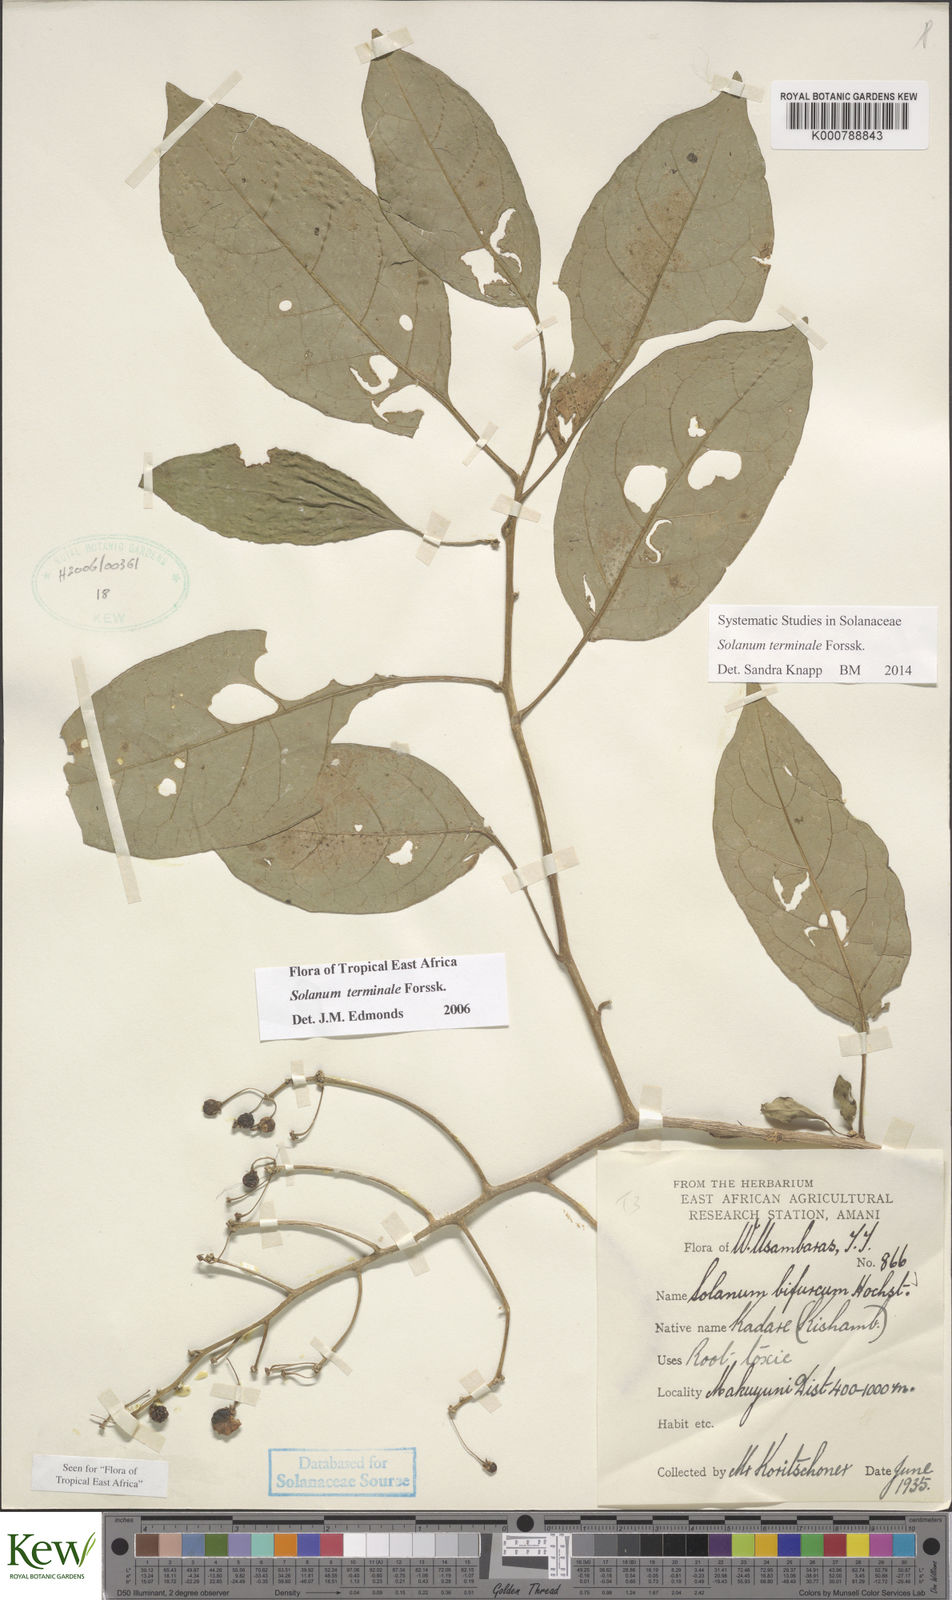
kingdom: Plantae
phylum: Tracheophyta
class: Magnoliopsida
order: Solanales
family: Solanaceae
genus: Solanum
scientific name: Solanum terminale
